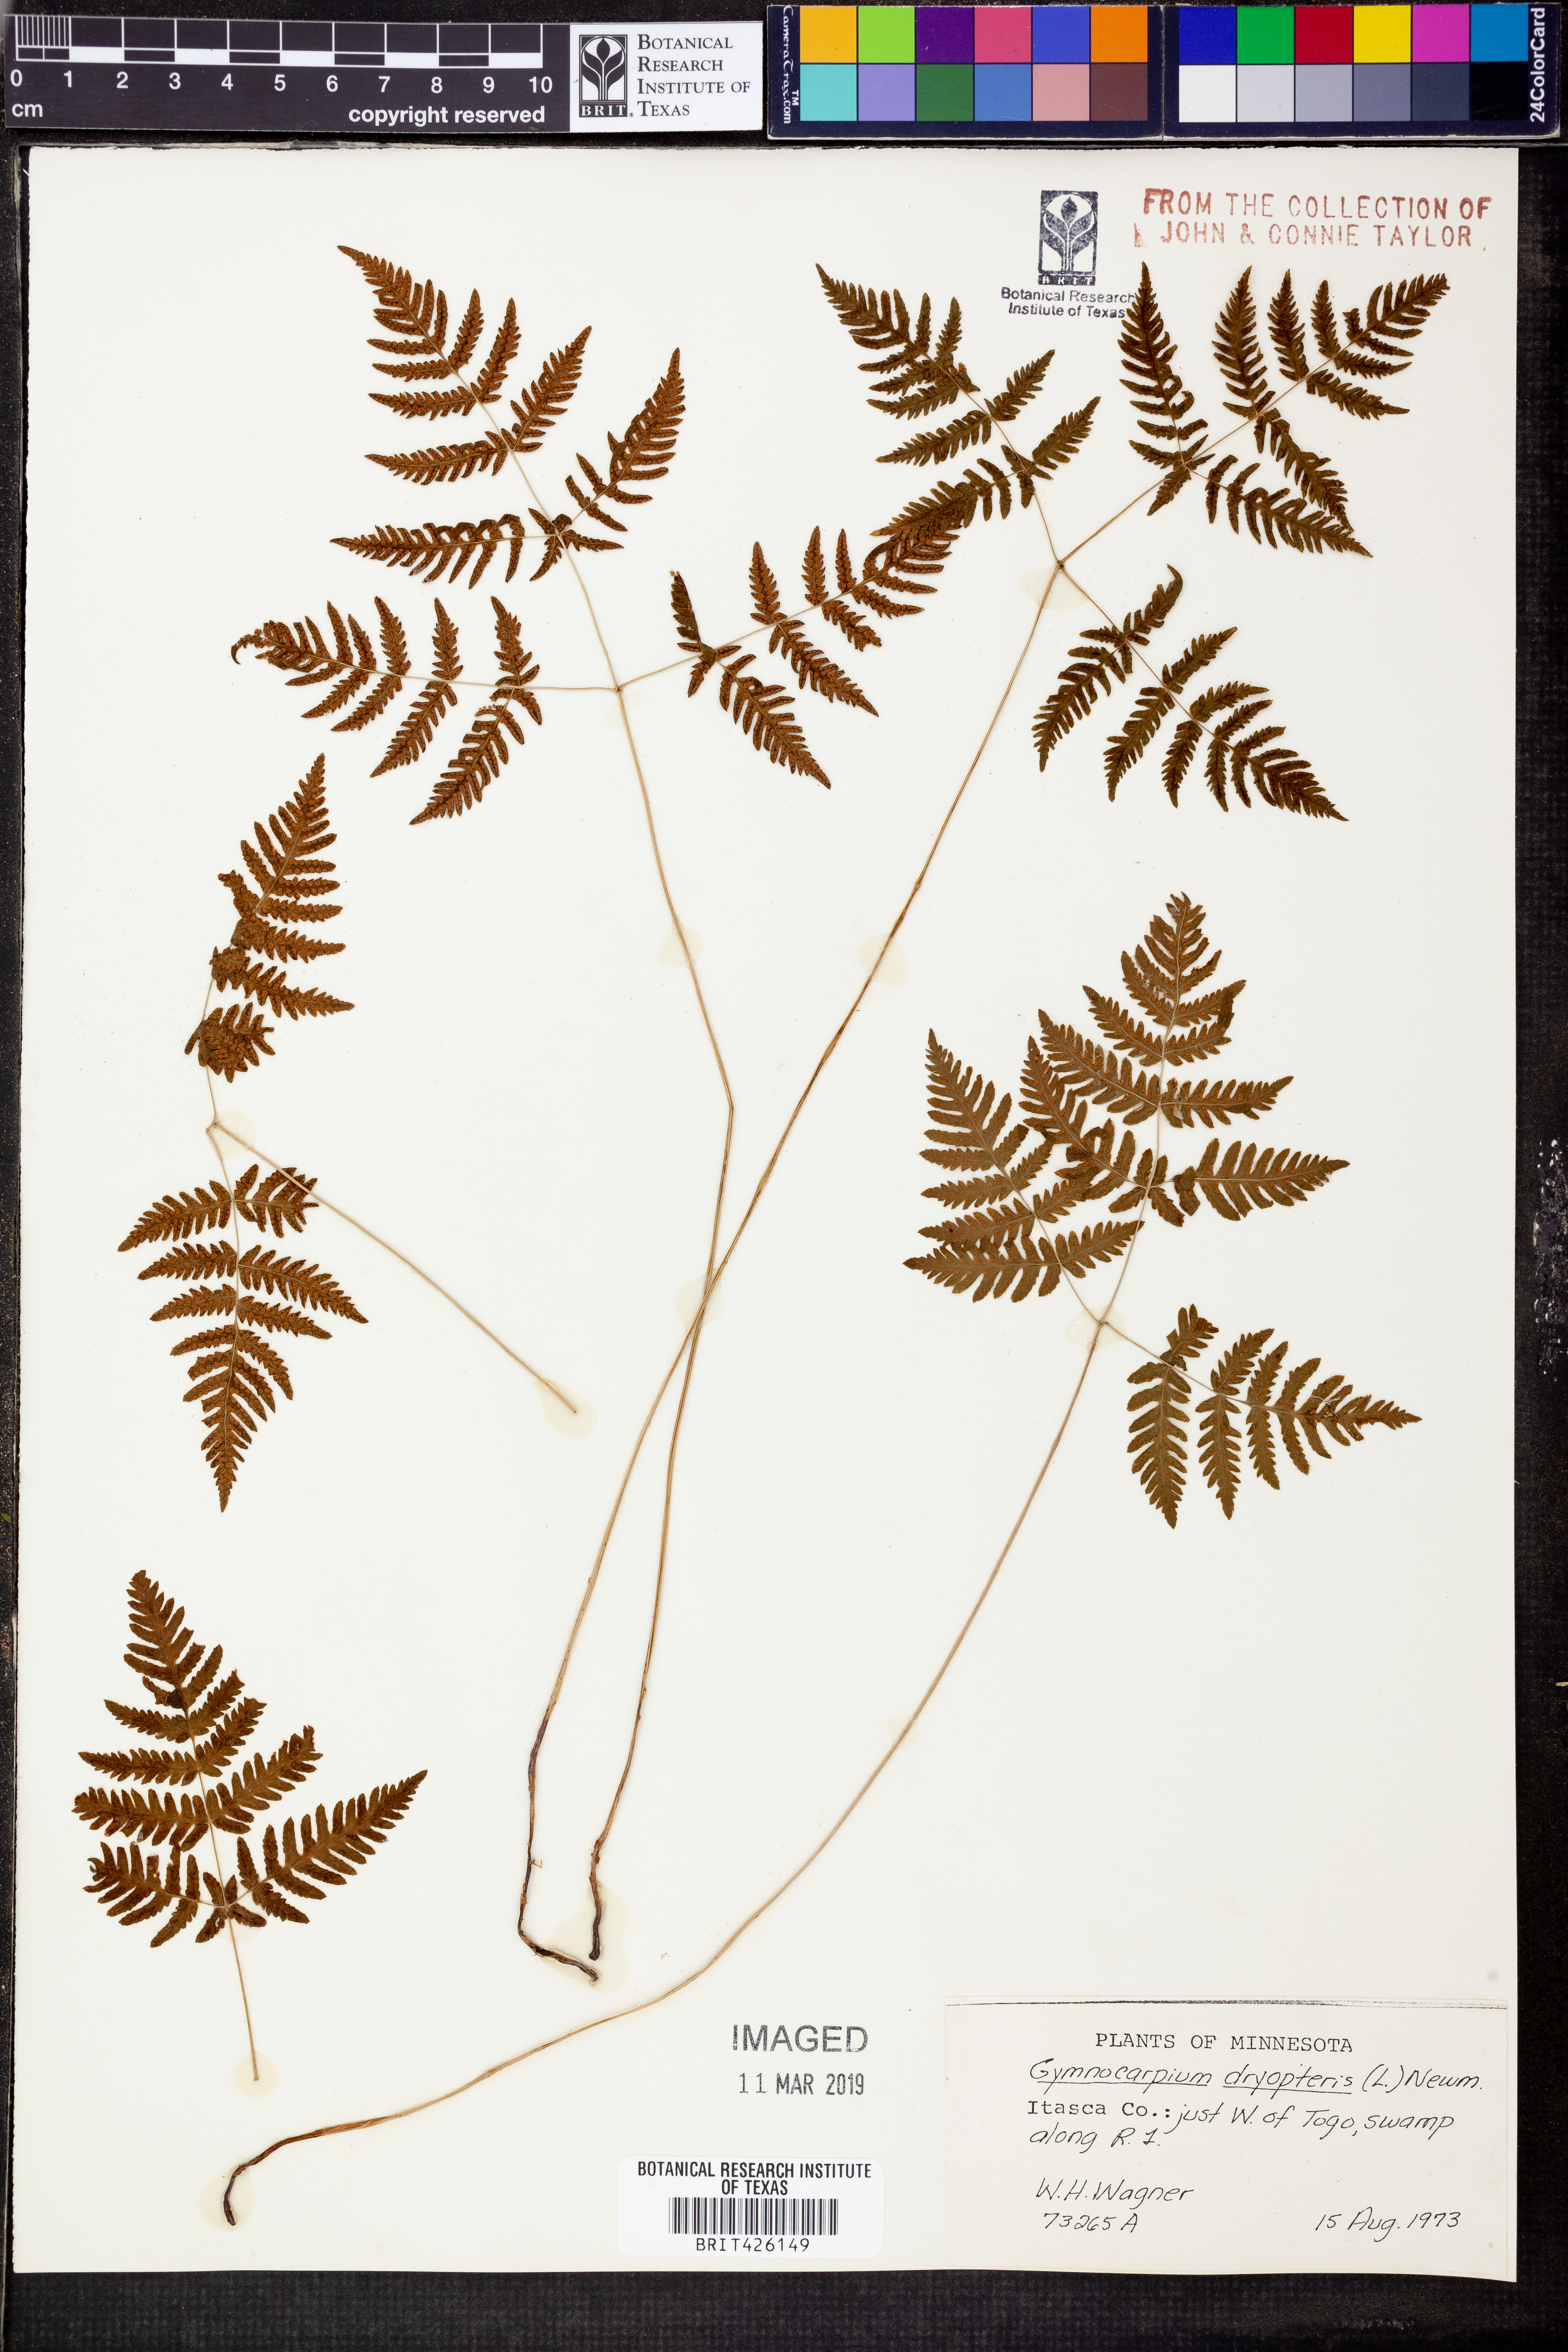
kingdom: Plantae
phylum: Tracheophyta
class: Polypodiopsida
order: Polypodiales
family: Cystopteridaceae
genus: Gymnocarpium
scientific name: Gymnocarpium dryopteris
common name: Oak fern
